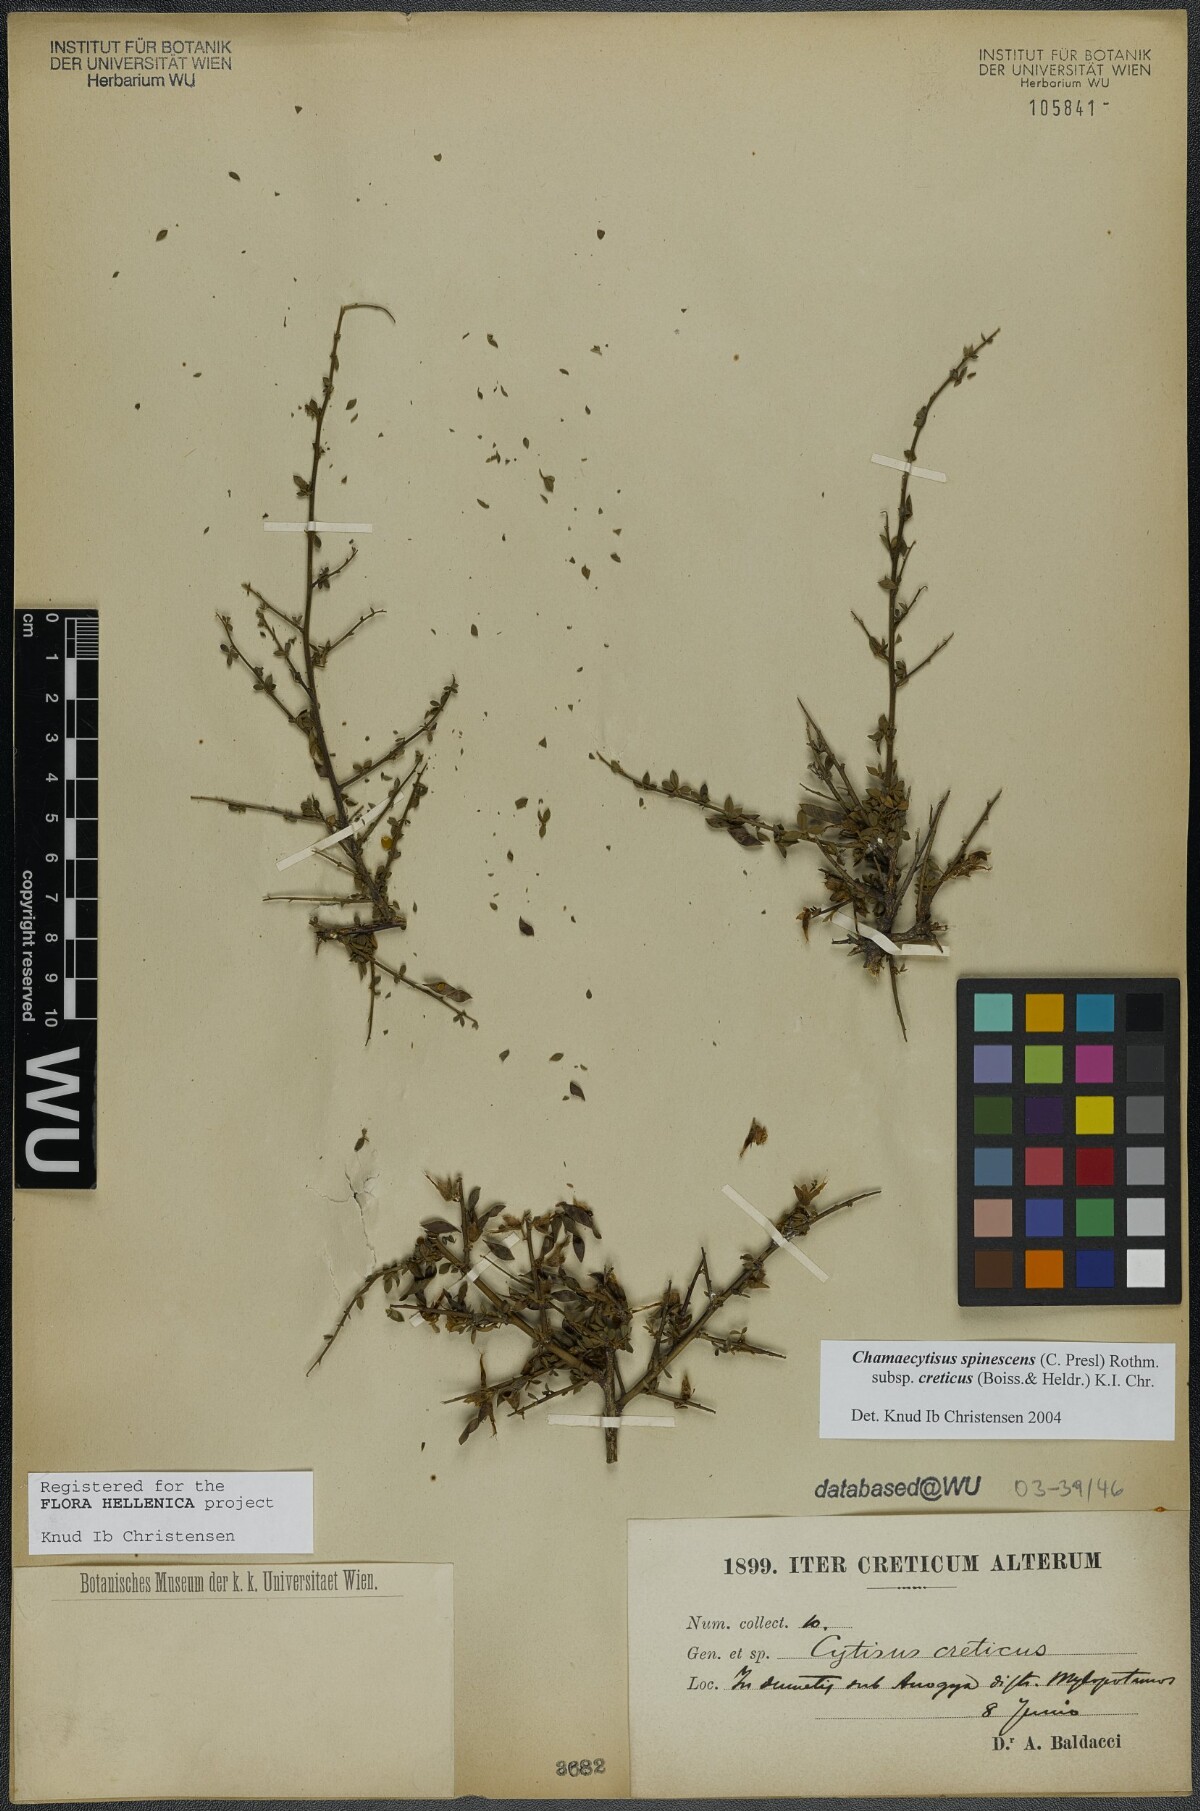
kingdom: Plantae
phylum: Tracheophyta
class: Magnoliopsida
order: Fabales
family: Fabaceae
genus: Chamaecytisus
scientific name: Chamaecytisus spinescens
